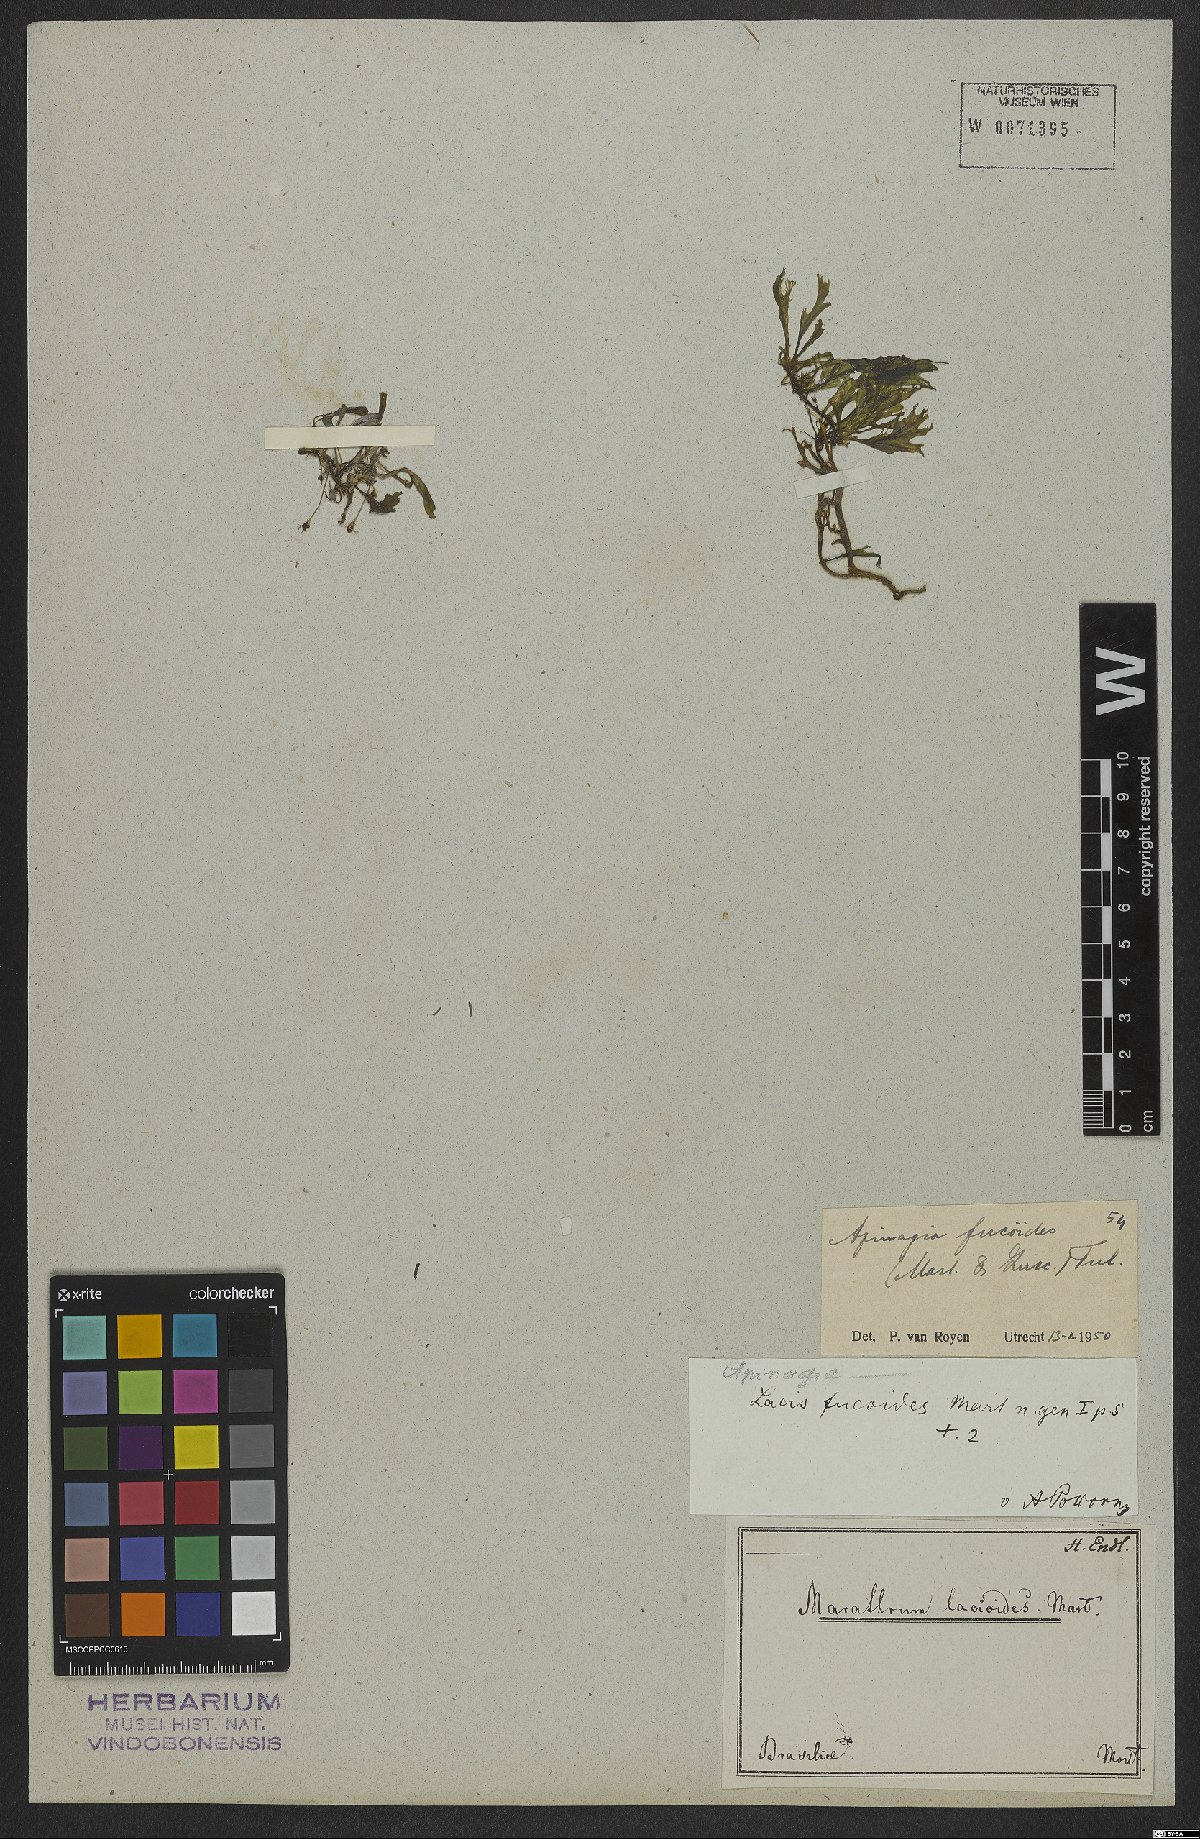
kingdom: Plantae
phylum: Tracheophyta
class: Magnoliopsida
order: Malpighiales
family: Podostemaceae
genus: Apinagia
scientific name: Apinagia fucoides
